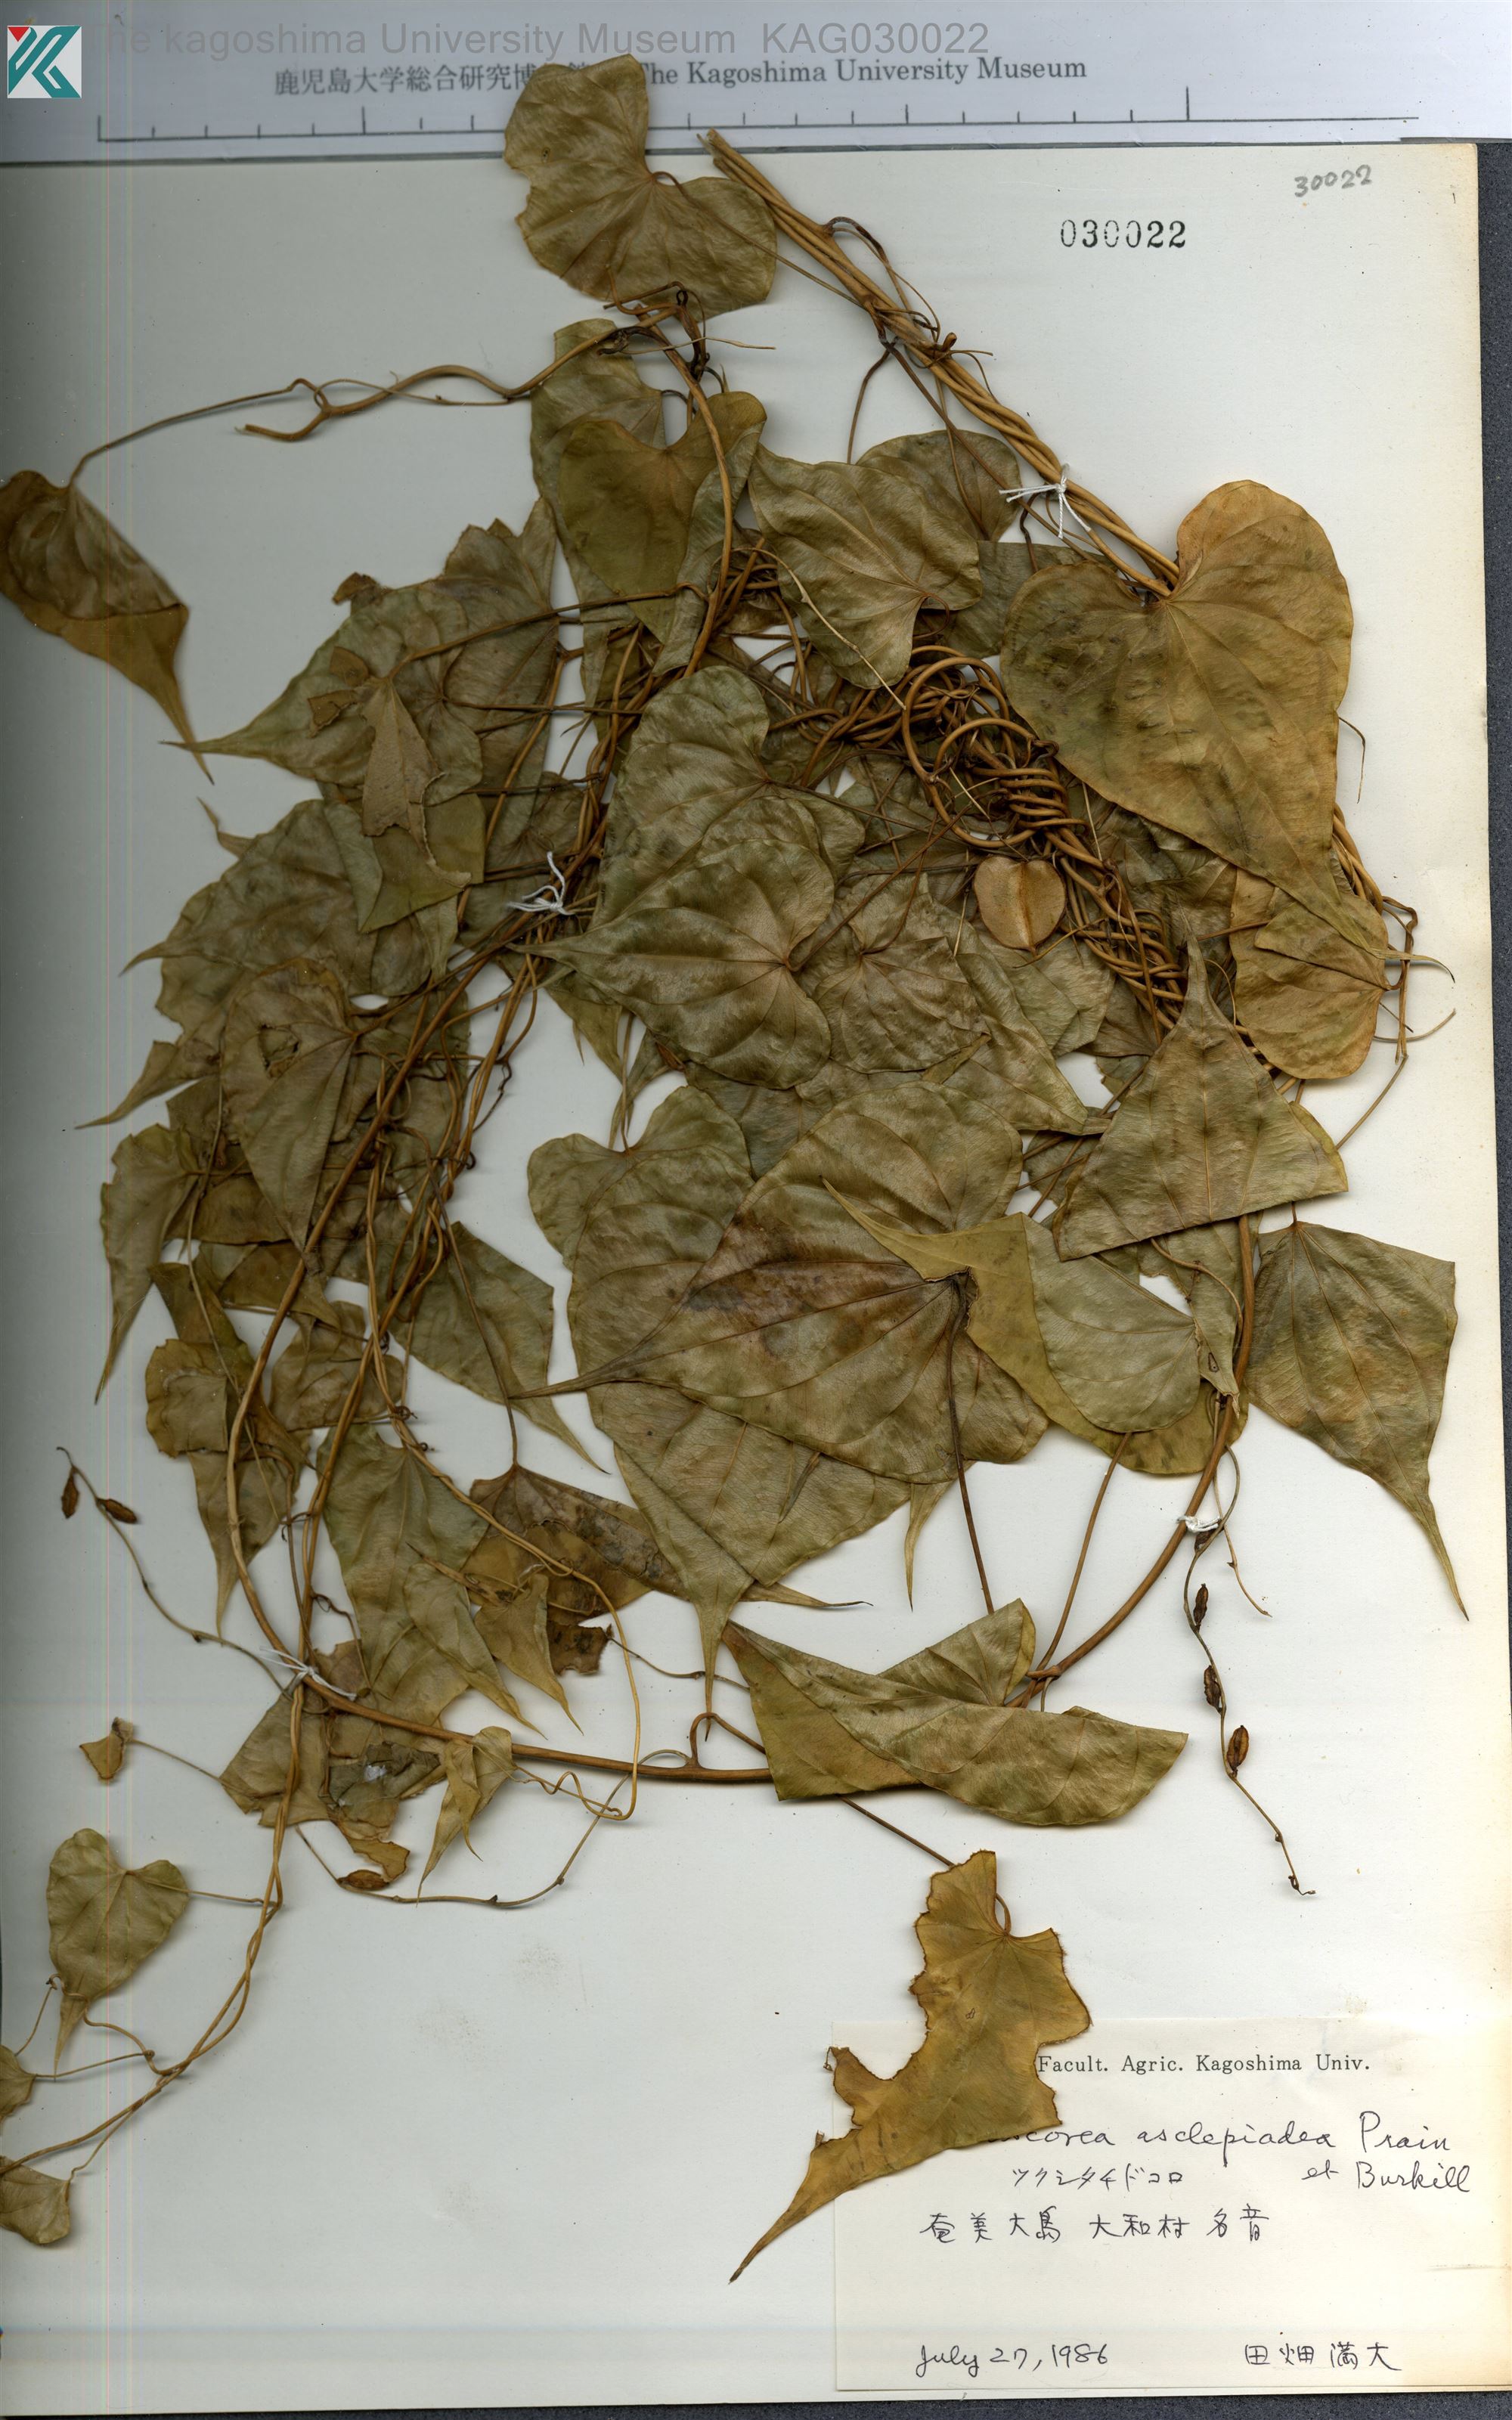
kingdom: Plantae
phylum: Tracheophyta
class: Liliopsida
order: Dioscoreales
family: Dioscoreaceae
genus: Dioscorea
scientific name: Dioscorea zentaroana
